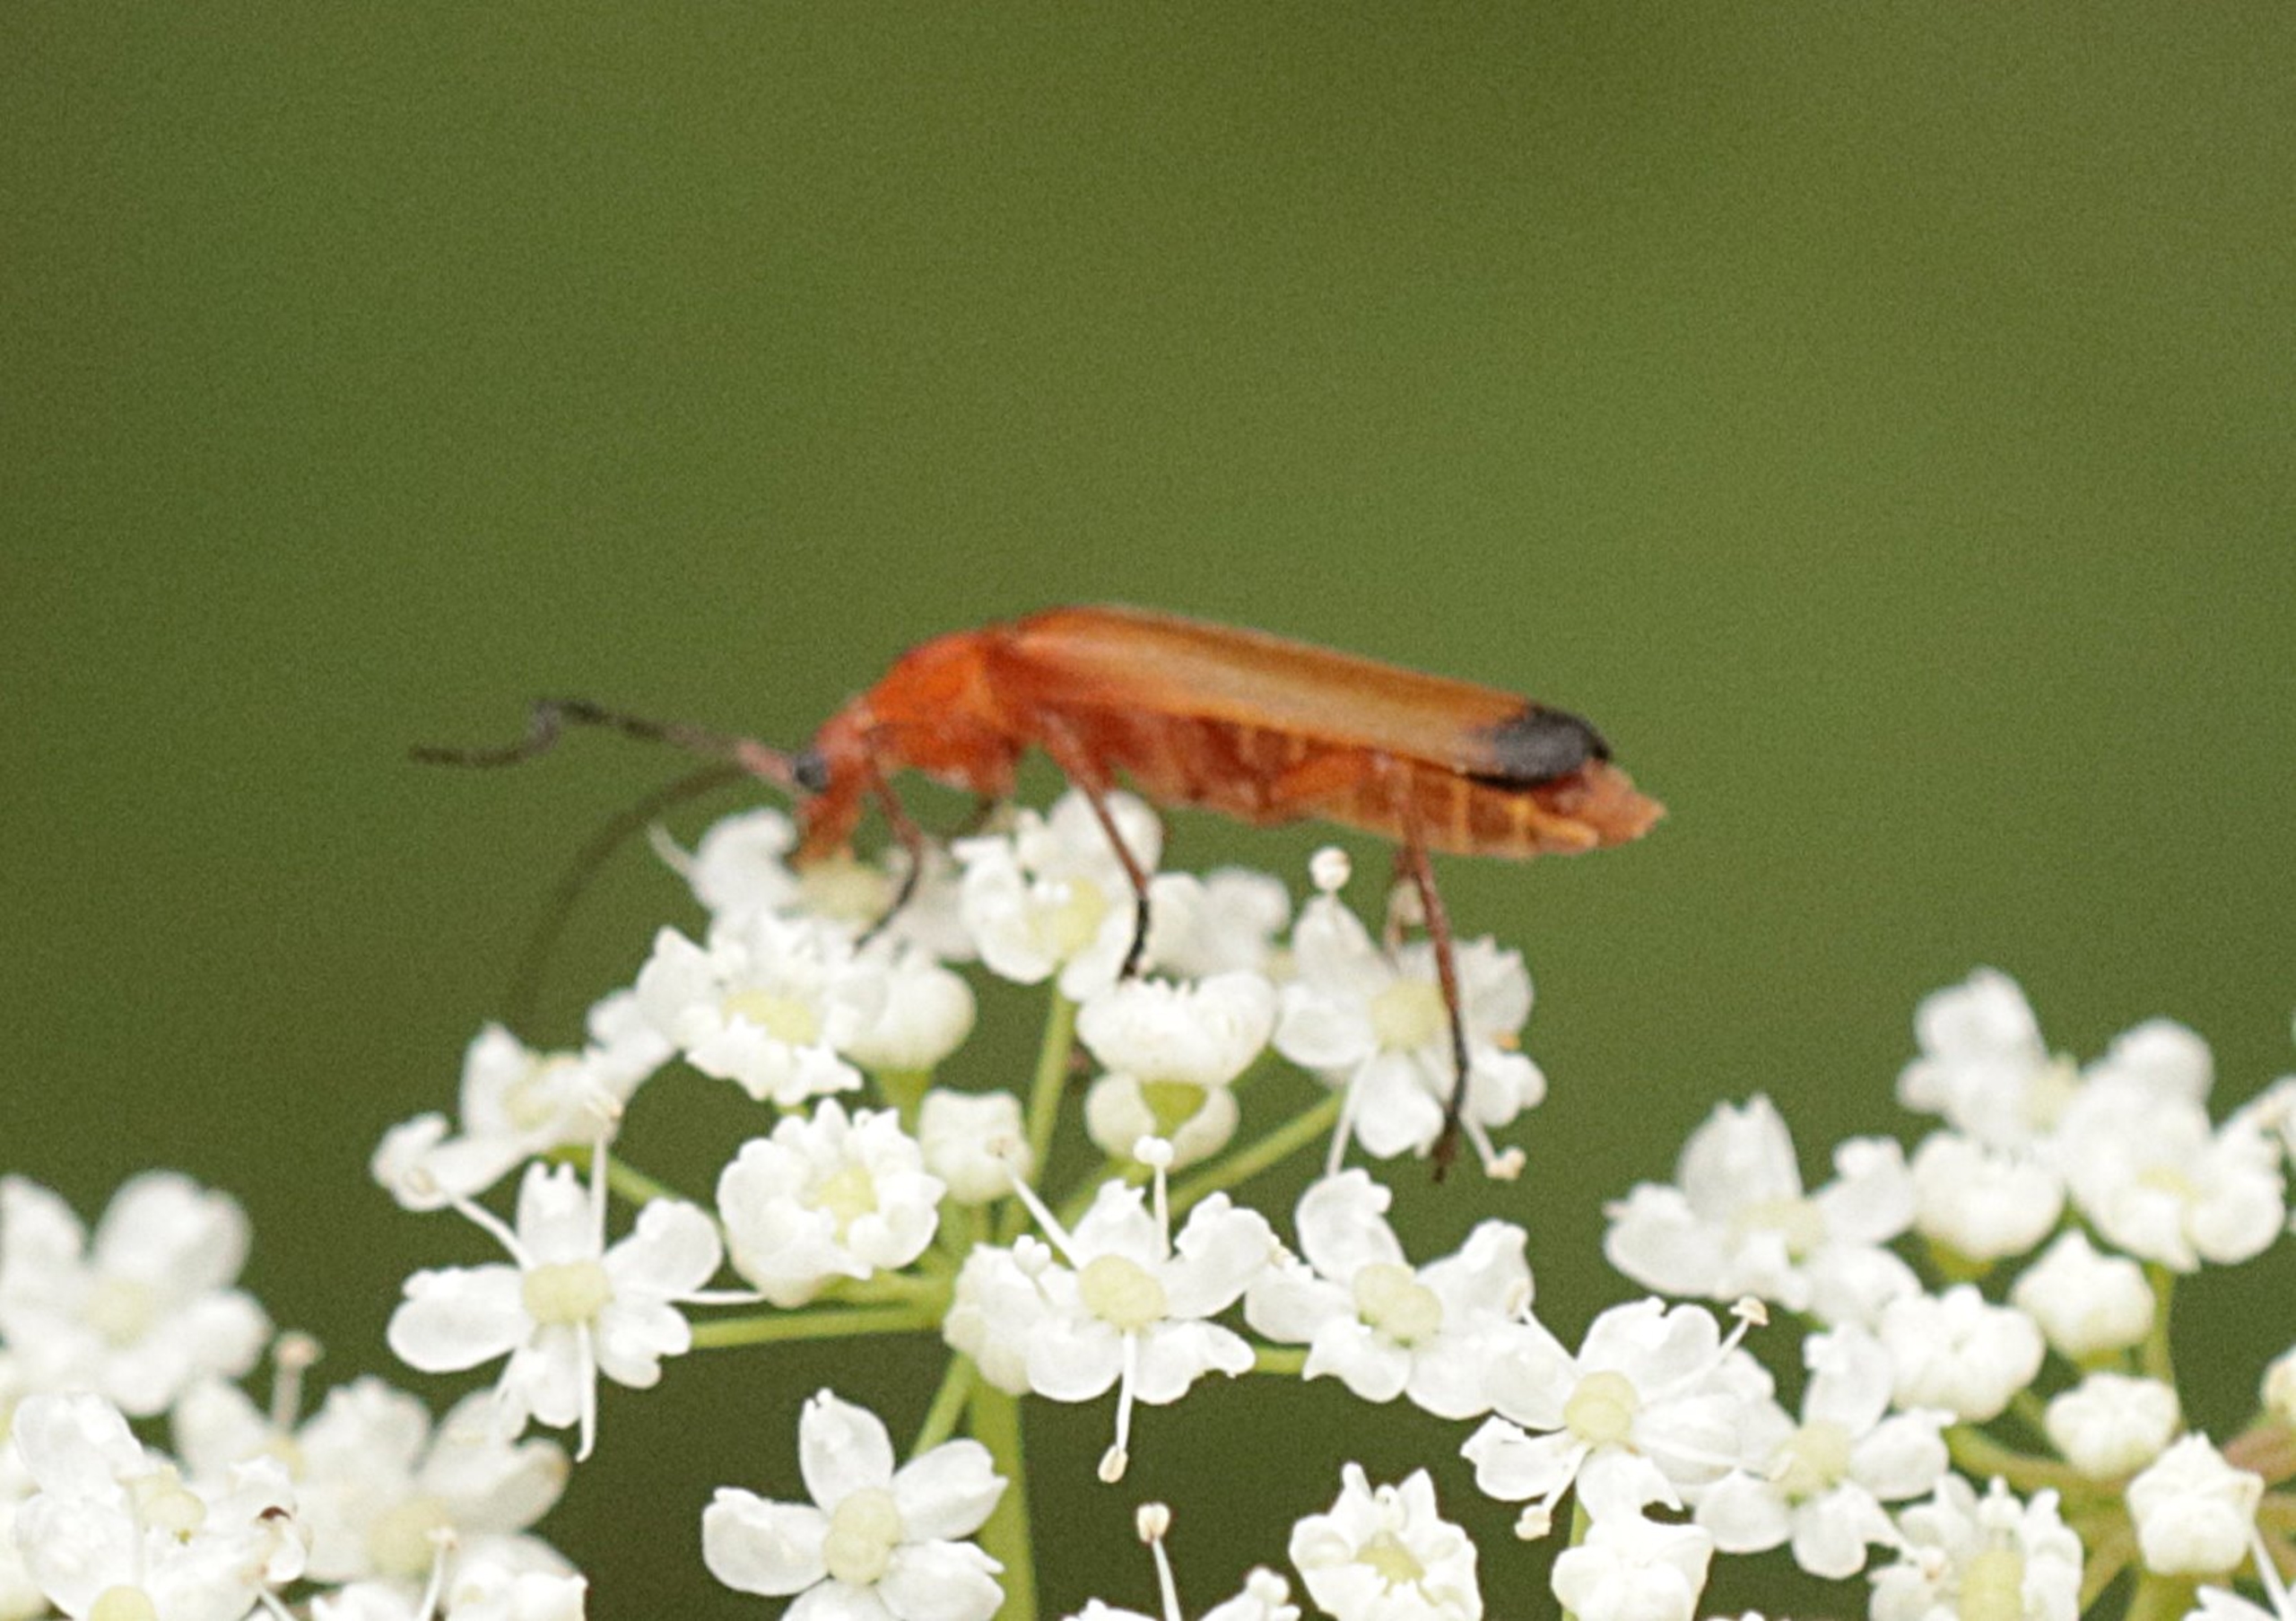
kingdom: Animalia
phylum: Arthropoda
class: Insecta
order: Coleoptera
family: Cantharidae
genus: Rhagonycha
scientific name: Rhagonycha fulva
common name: Præstebille
